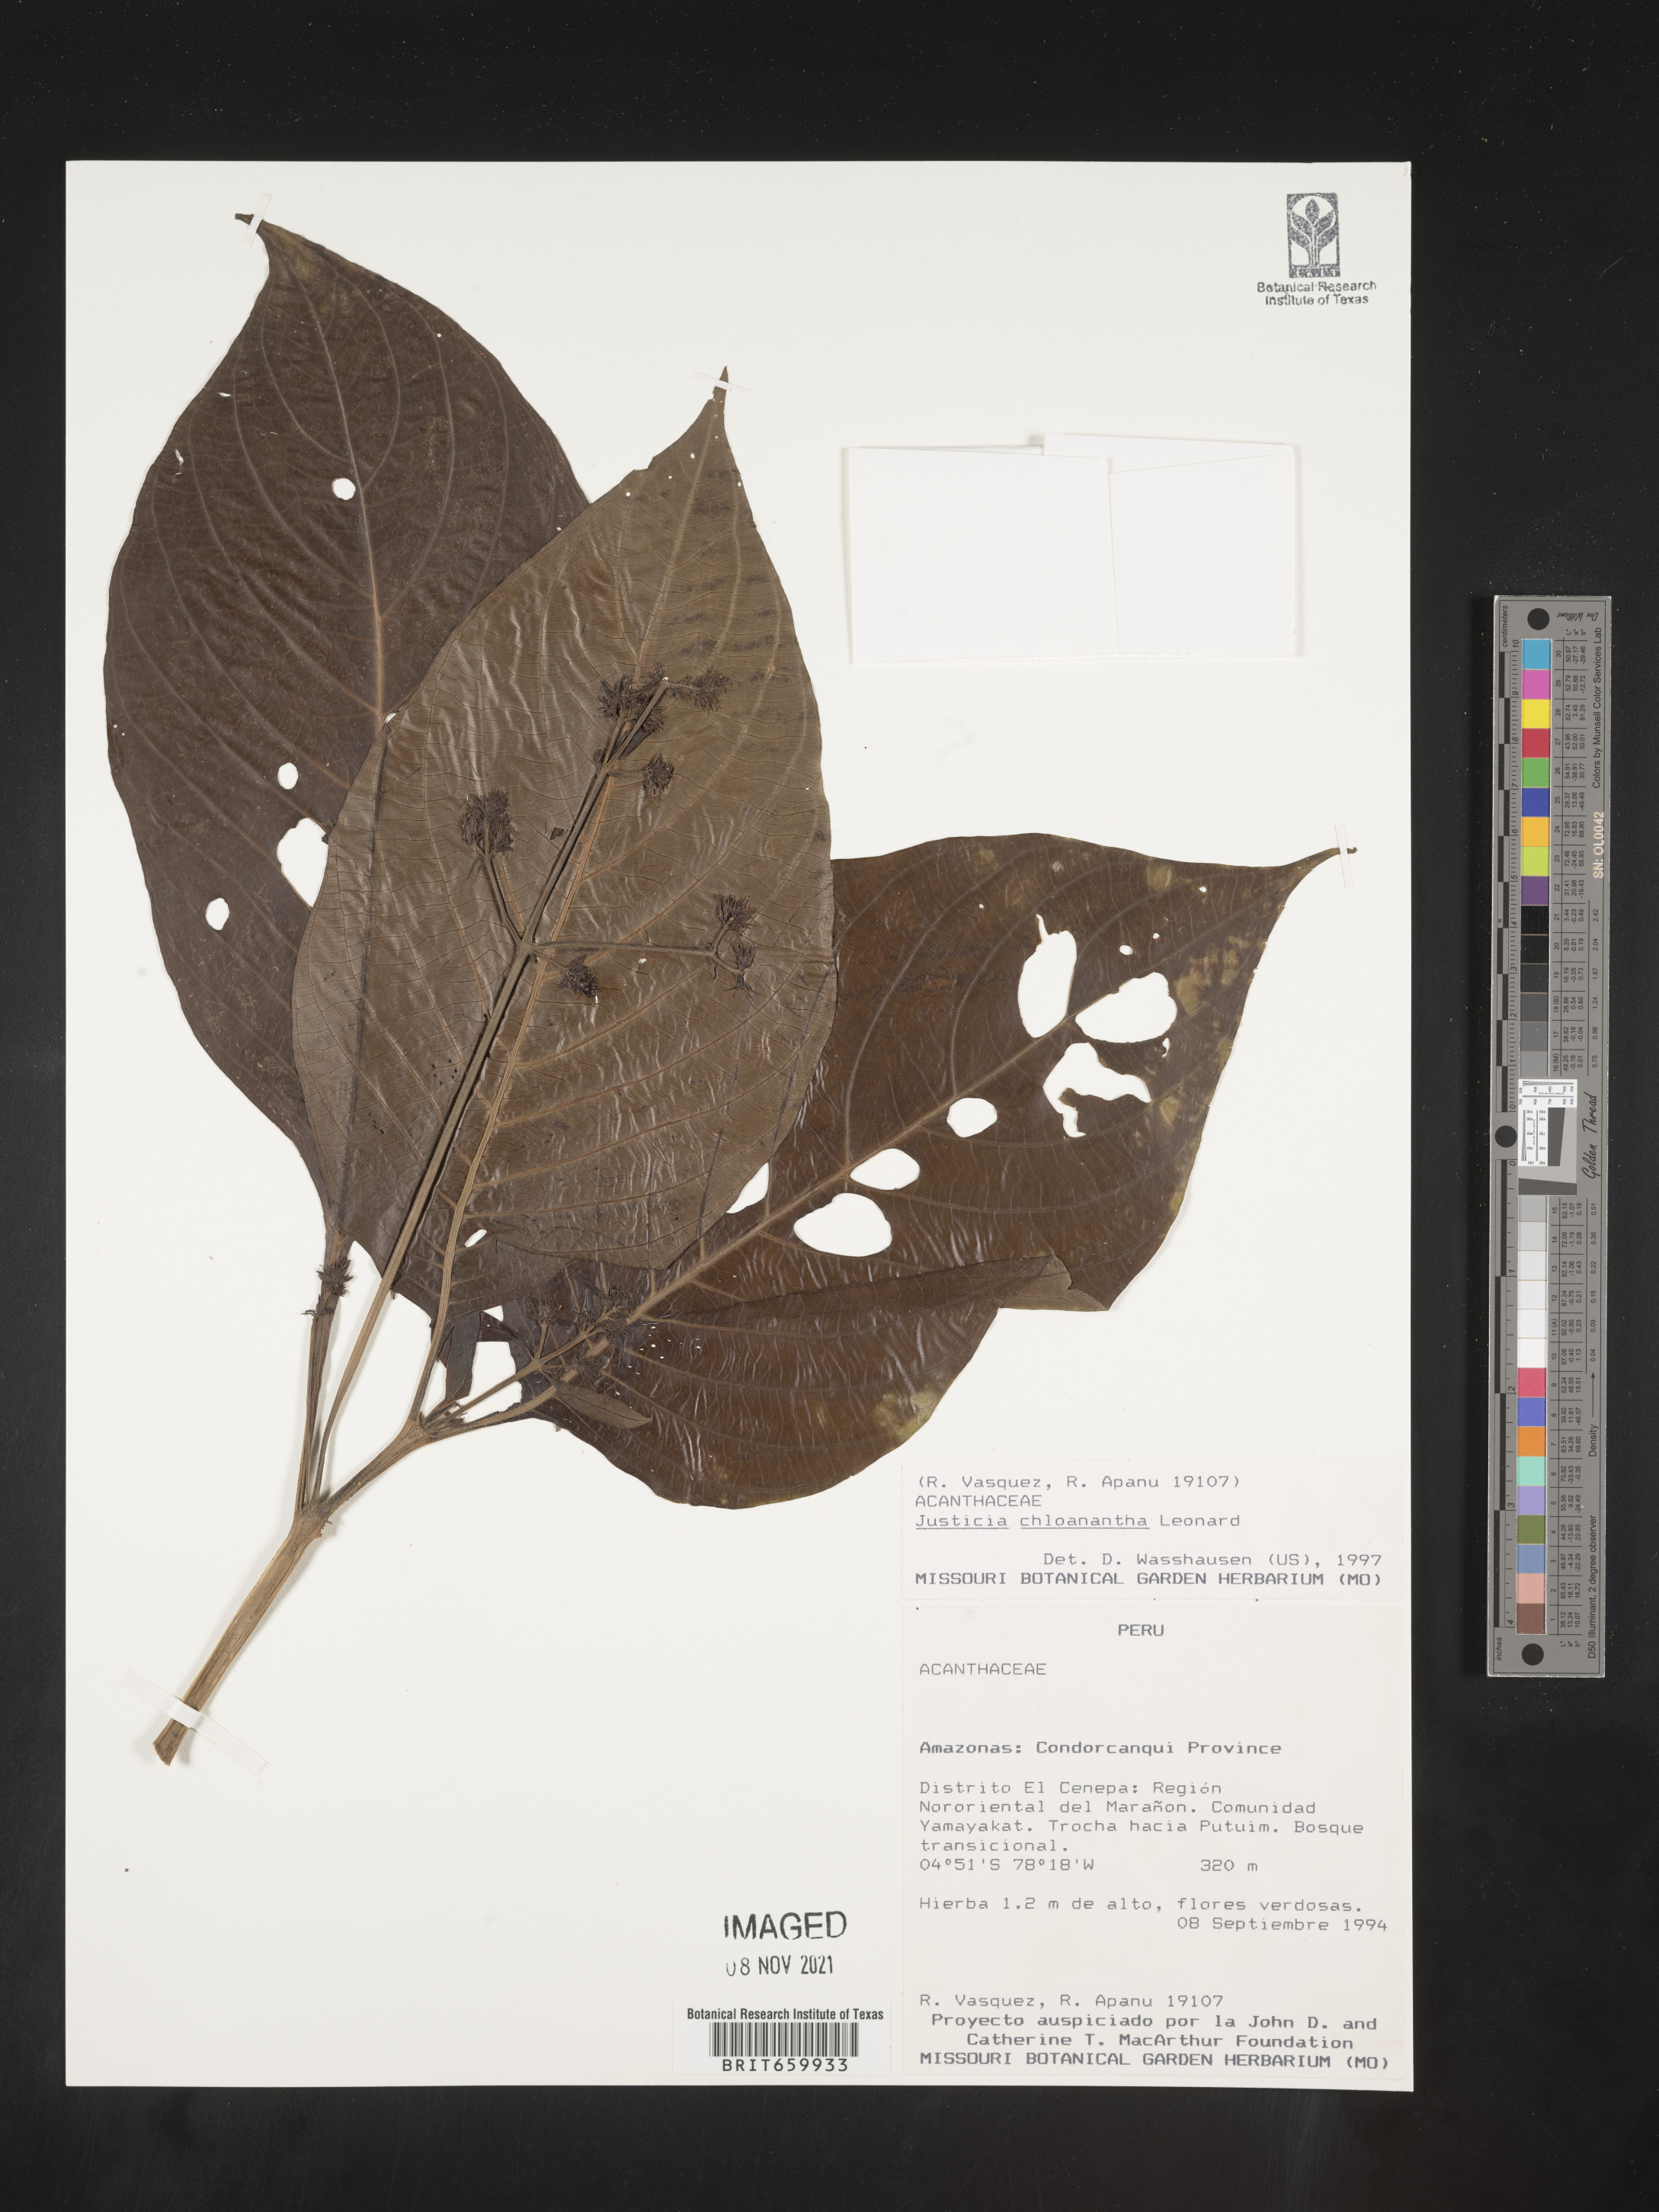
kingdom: Plantae
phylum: Tracheophyta
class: Magnoliopsida
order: Lamiales
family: Acanthaceae
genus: Justicia
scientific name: Justicia chloanantha
